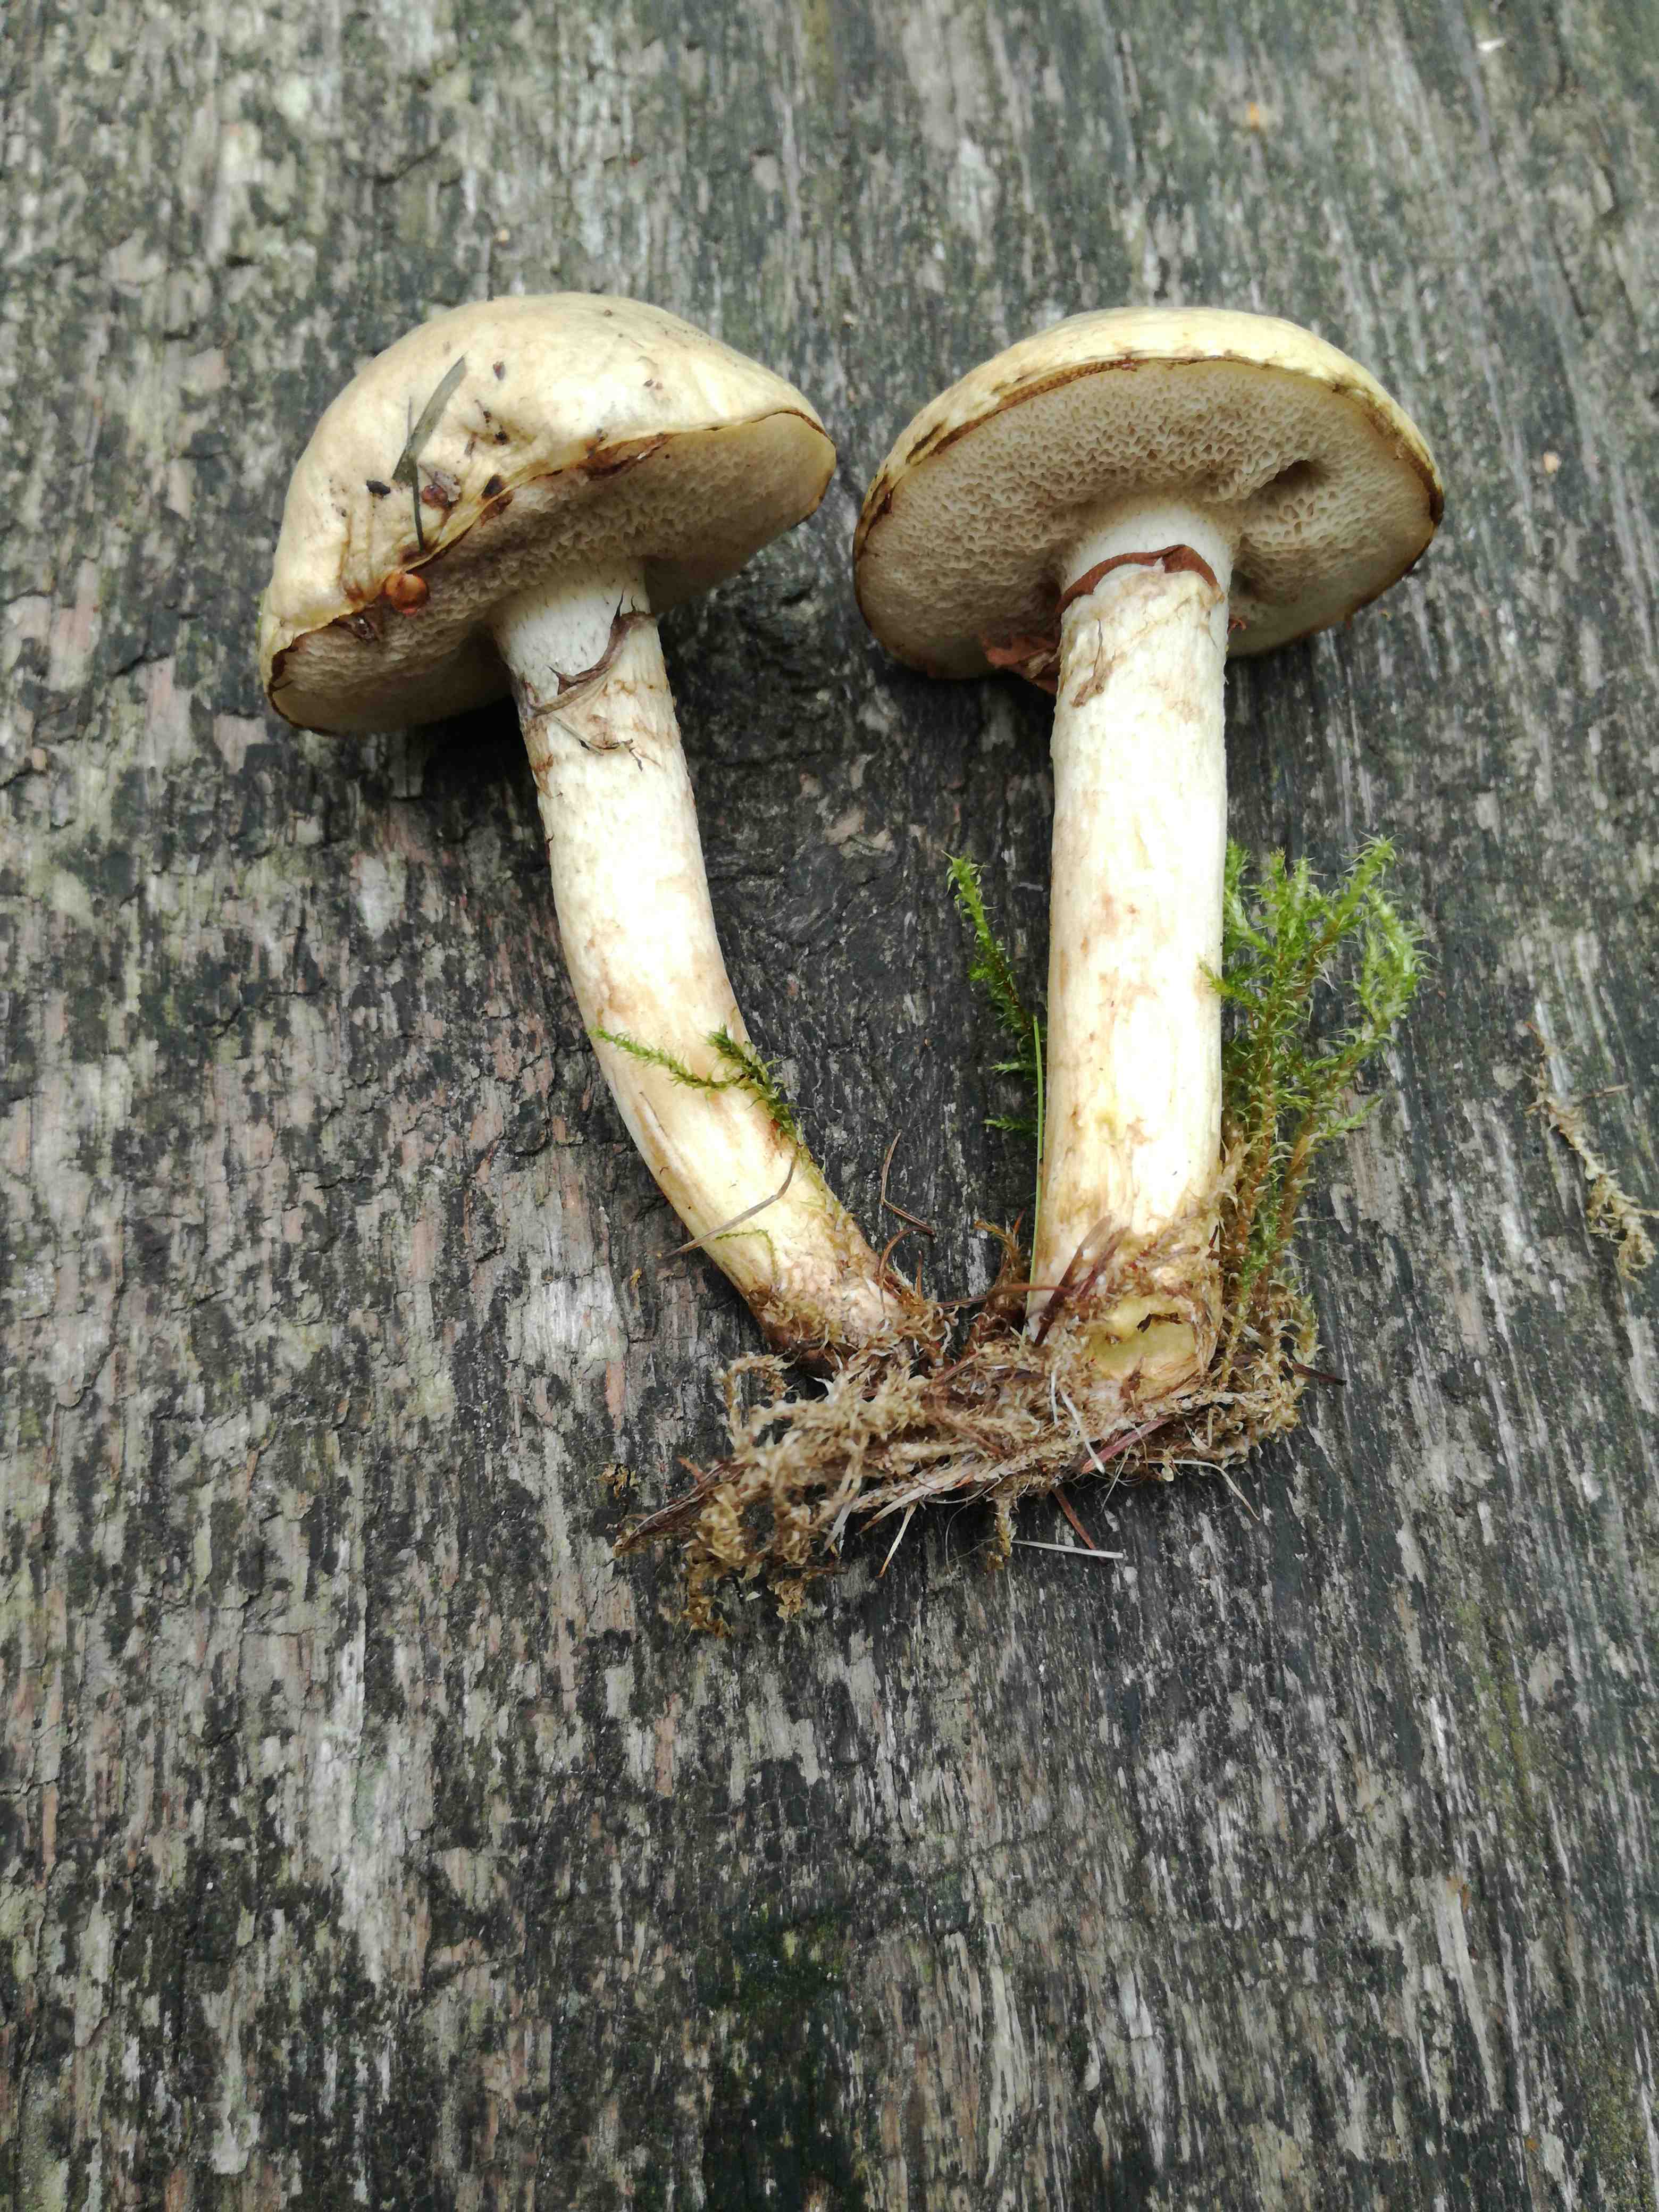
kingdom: Fungi
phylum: Basidiomycota
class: Agaricomycetes
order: Boletales
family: Suillaceae
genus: Suillus
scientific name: Suillus viscidus
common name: olivengrå slimrørhat
